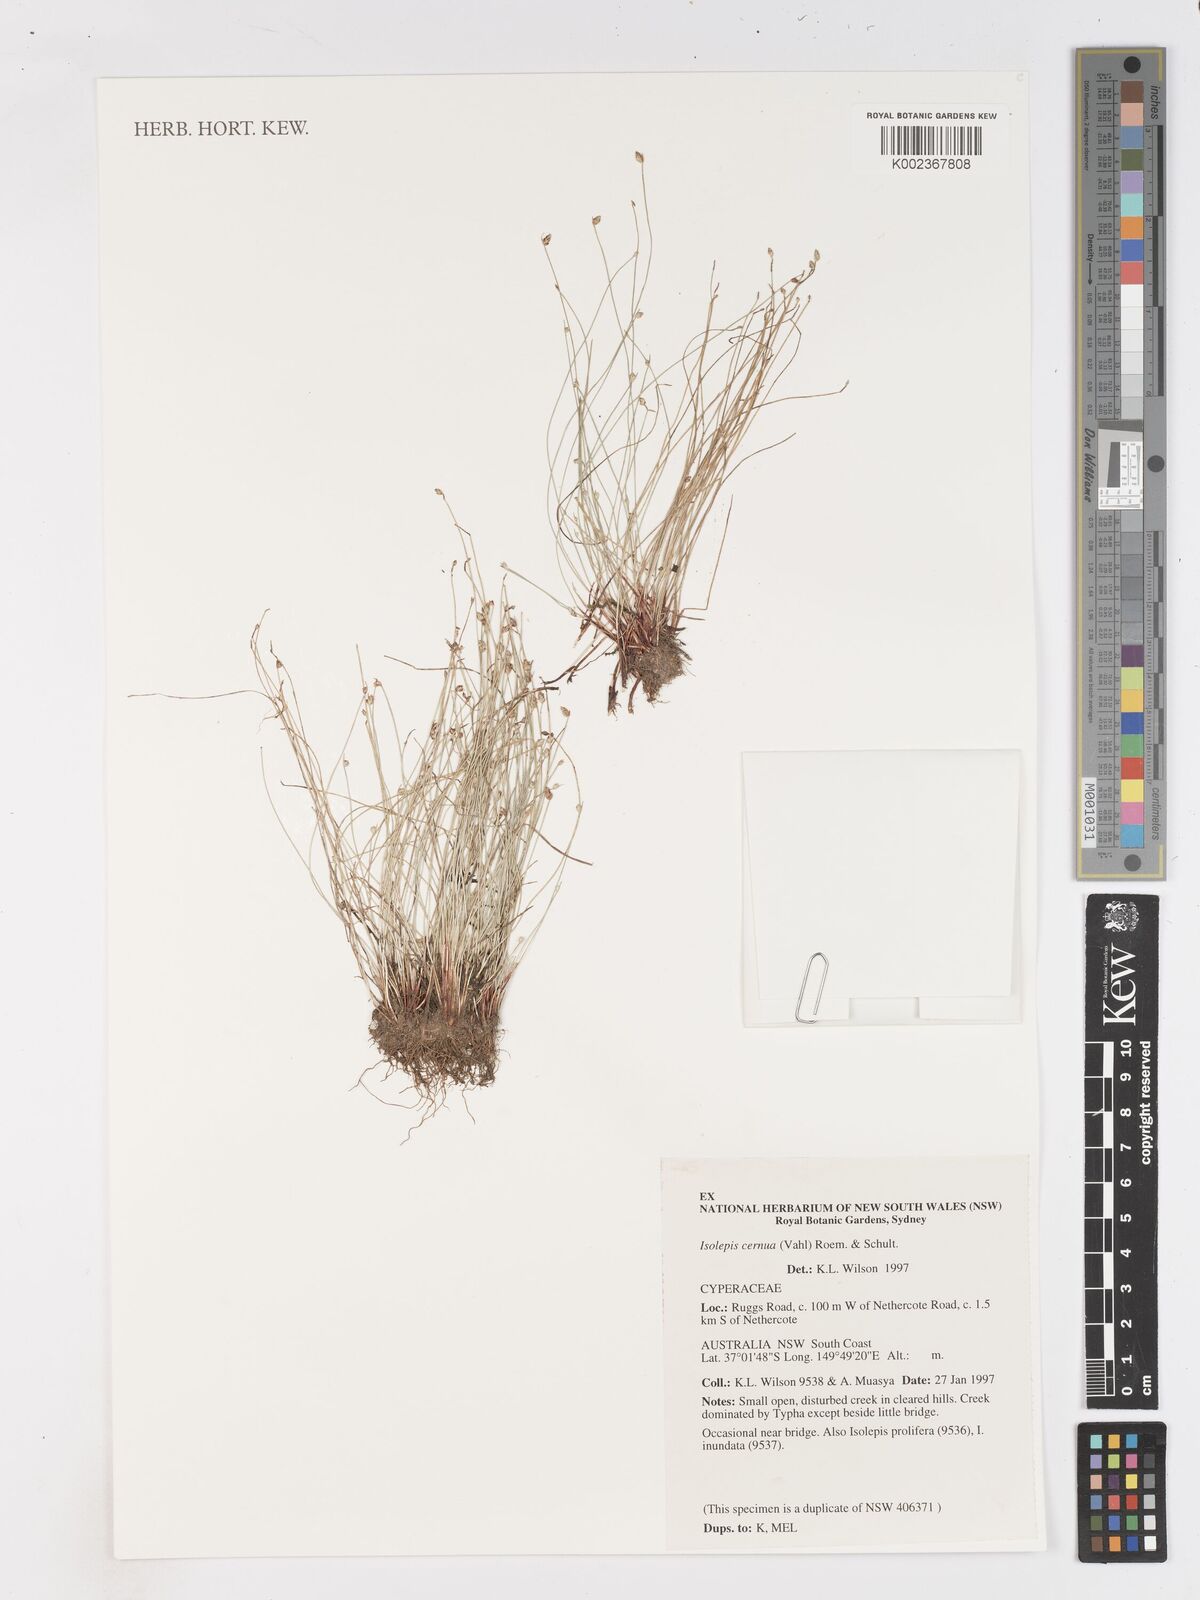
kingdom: Plantae
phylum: Tracheophyta
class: Liliopsida
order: Poales
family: Cyperaceae
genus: Isolepis
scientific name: Isolepis cernua
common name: Slender club-rush
